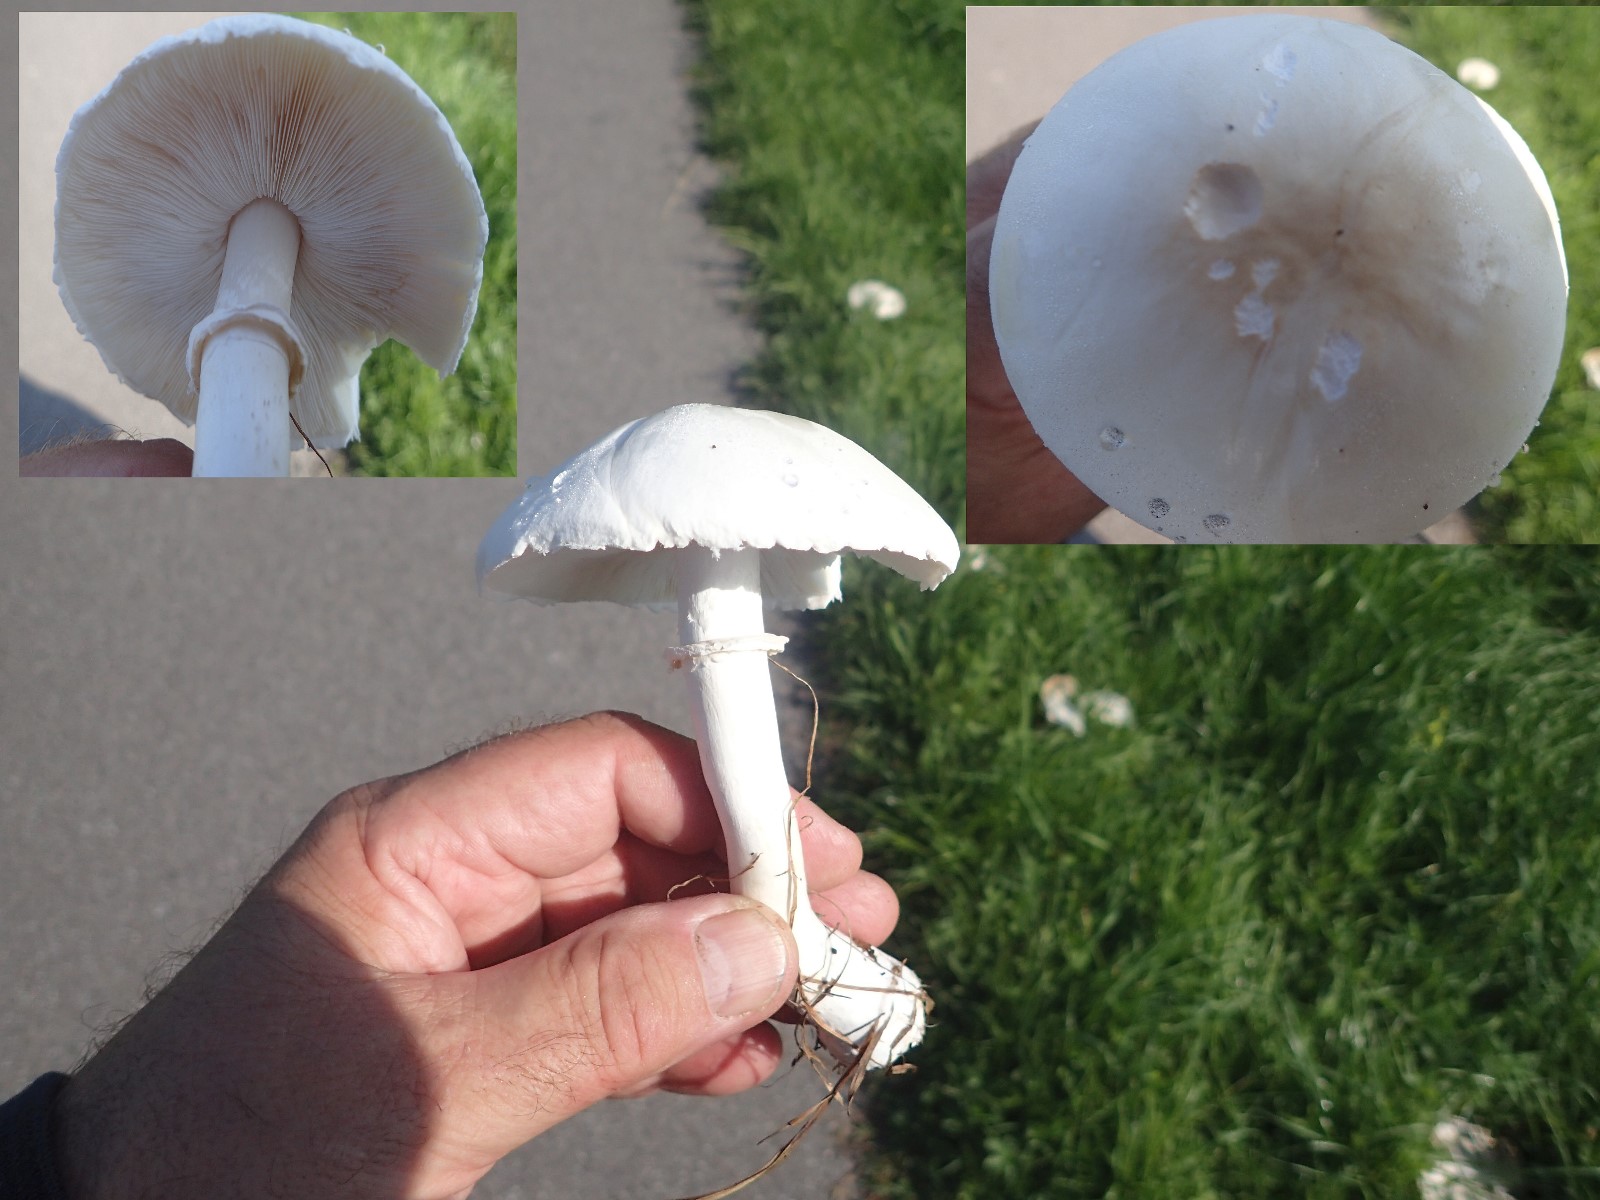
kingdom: Fungi
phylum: Basidiomycota
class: Agaricomycetes
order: Agaricales
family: Agaricaceae
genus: Leucoagaricus
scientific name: Leucoagaricus leucothites
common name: rosabladet silkehat
